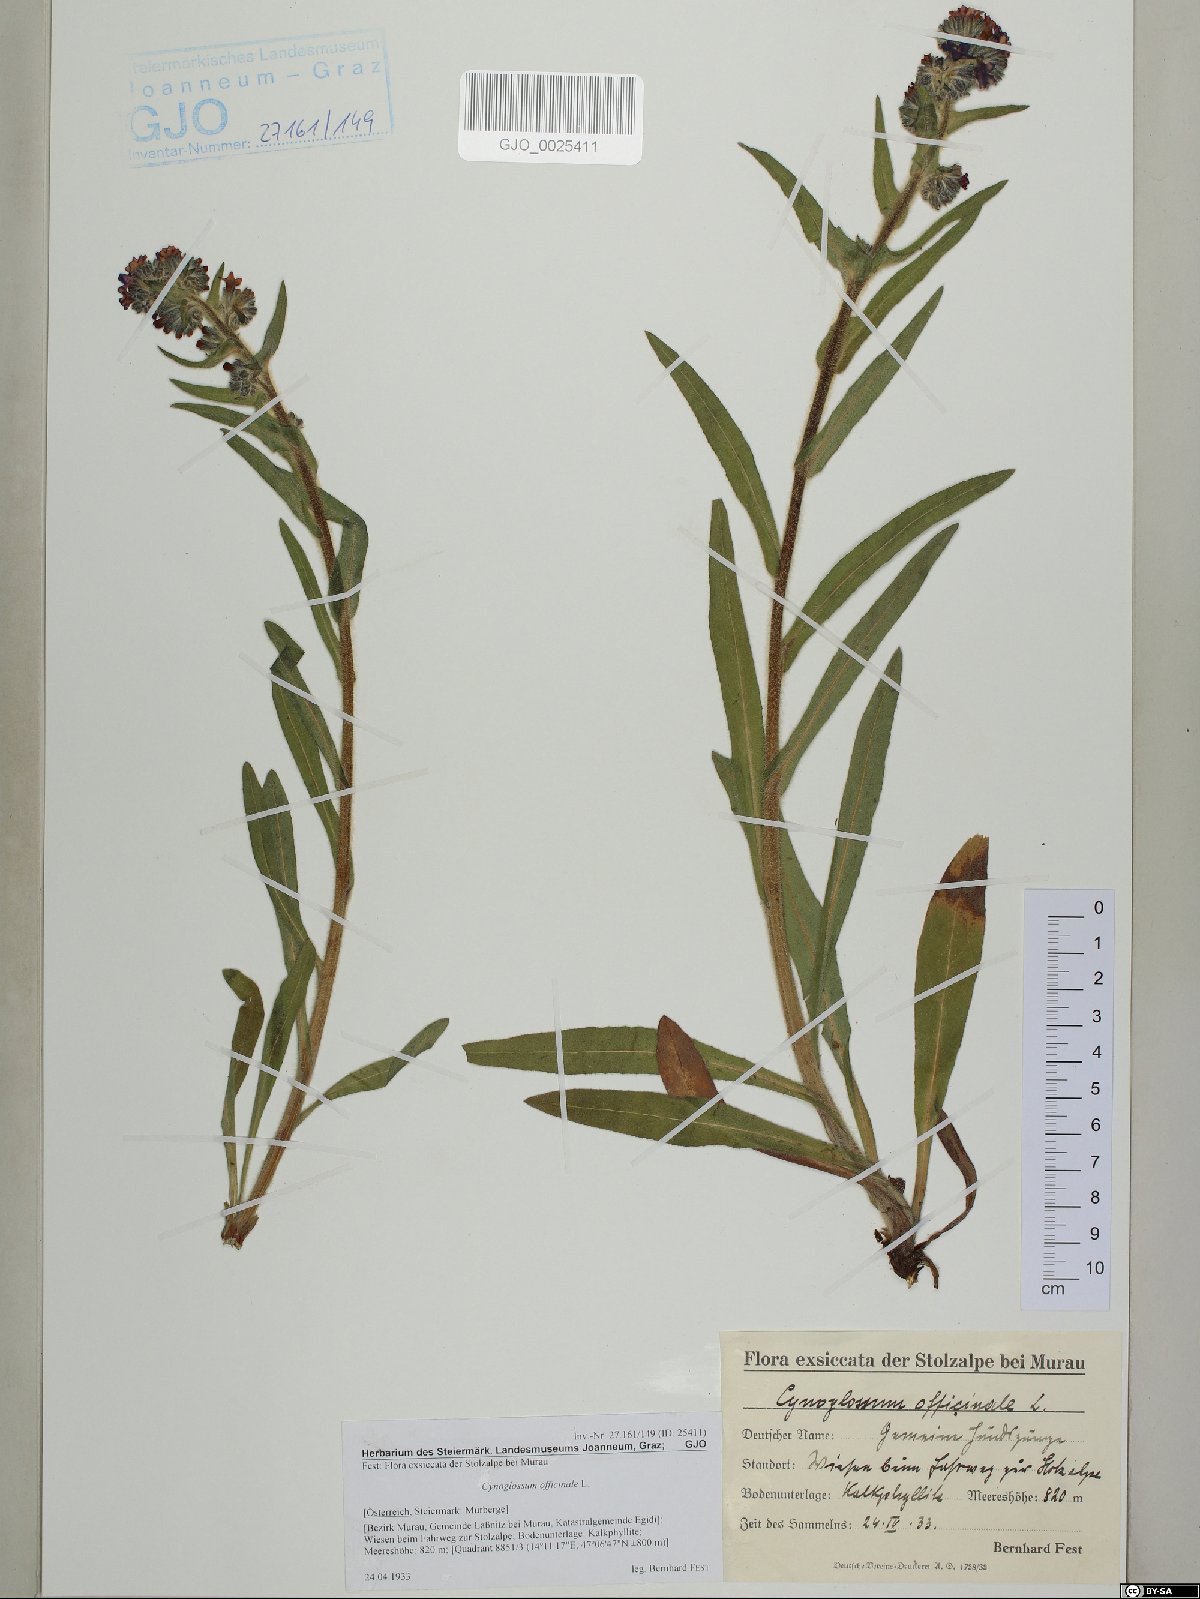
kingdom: Plantae
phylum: Tracheophyta
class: Magnoliopsida
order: Boraginales
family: Boraginaceae
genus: Cynoglossum
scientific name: Cynoglossum officinale
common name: Hound's-tongue
